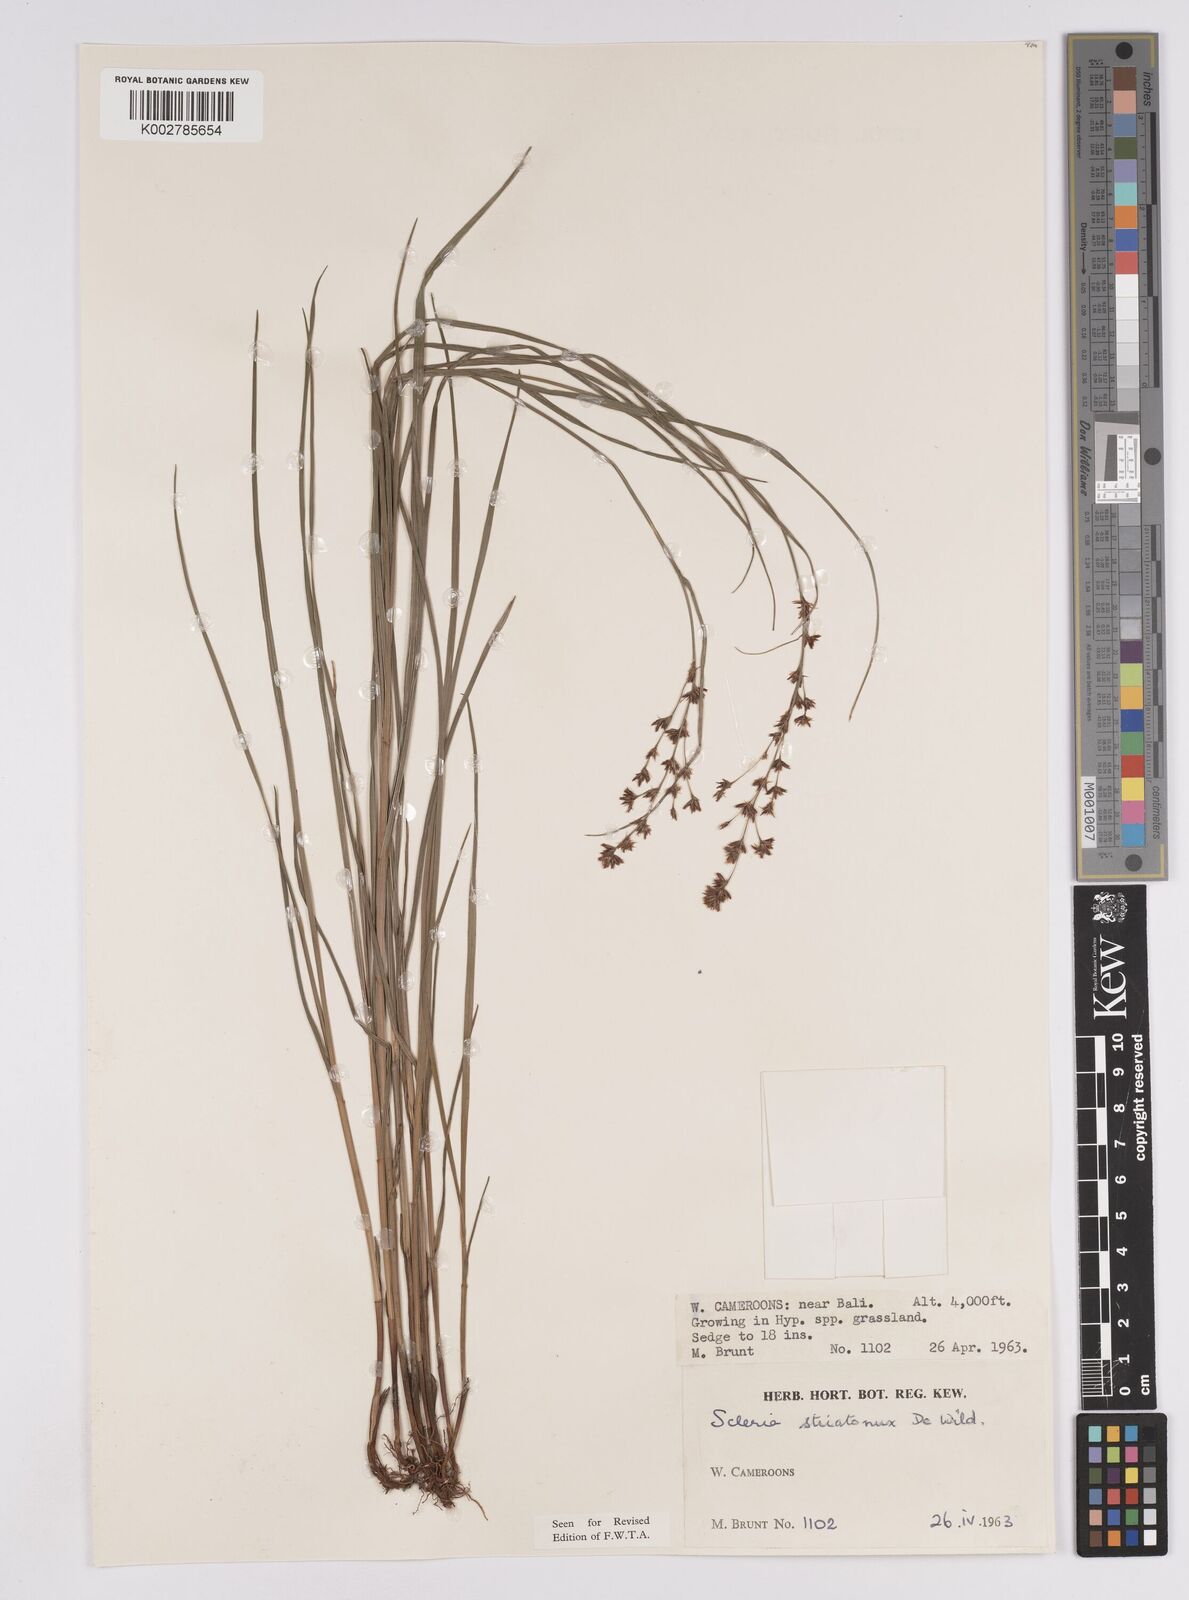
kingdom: Plantae
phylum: Tracheophyta
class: Liliopsida
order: Poales
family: Cyperaceae
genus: Scleria
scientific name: Scleria woodii
